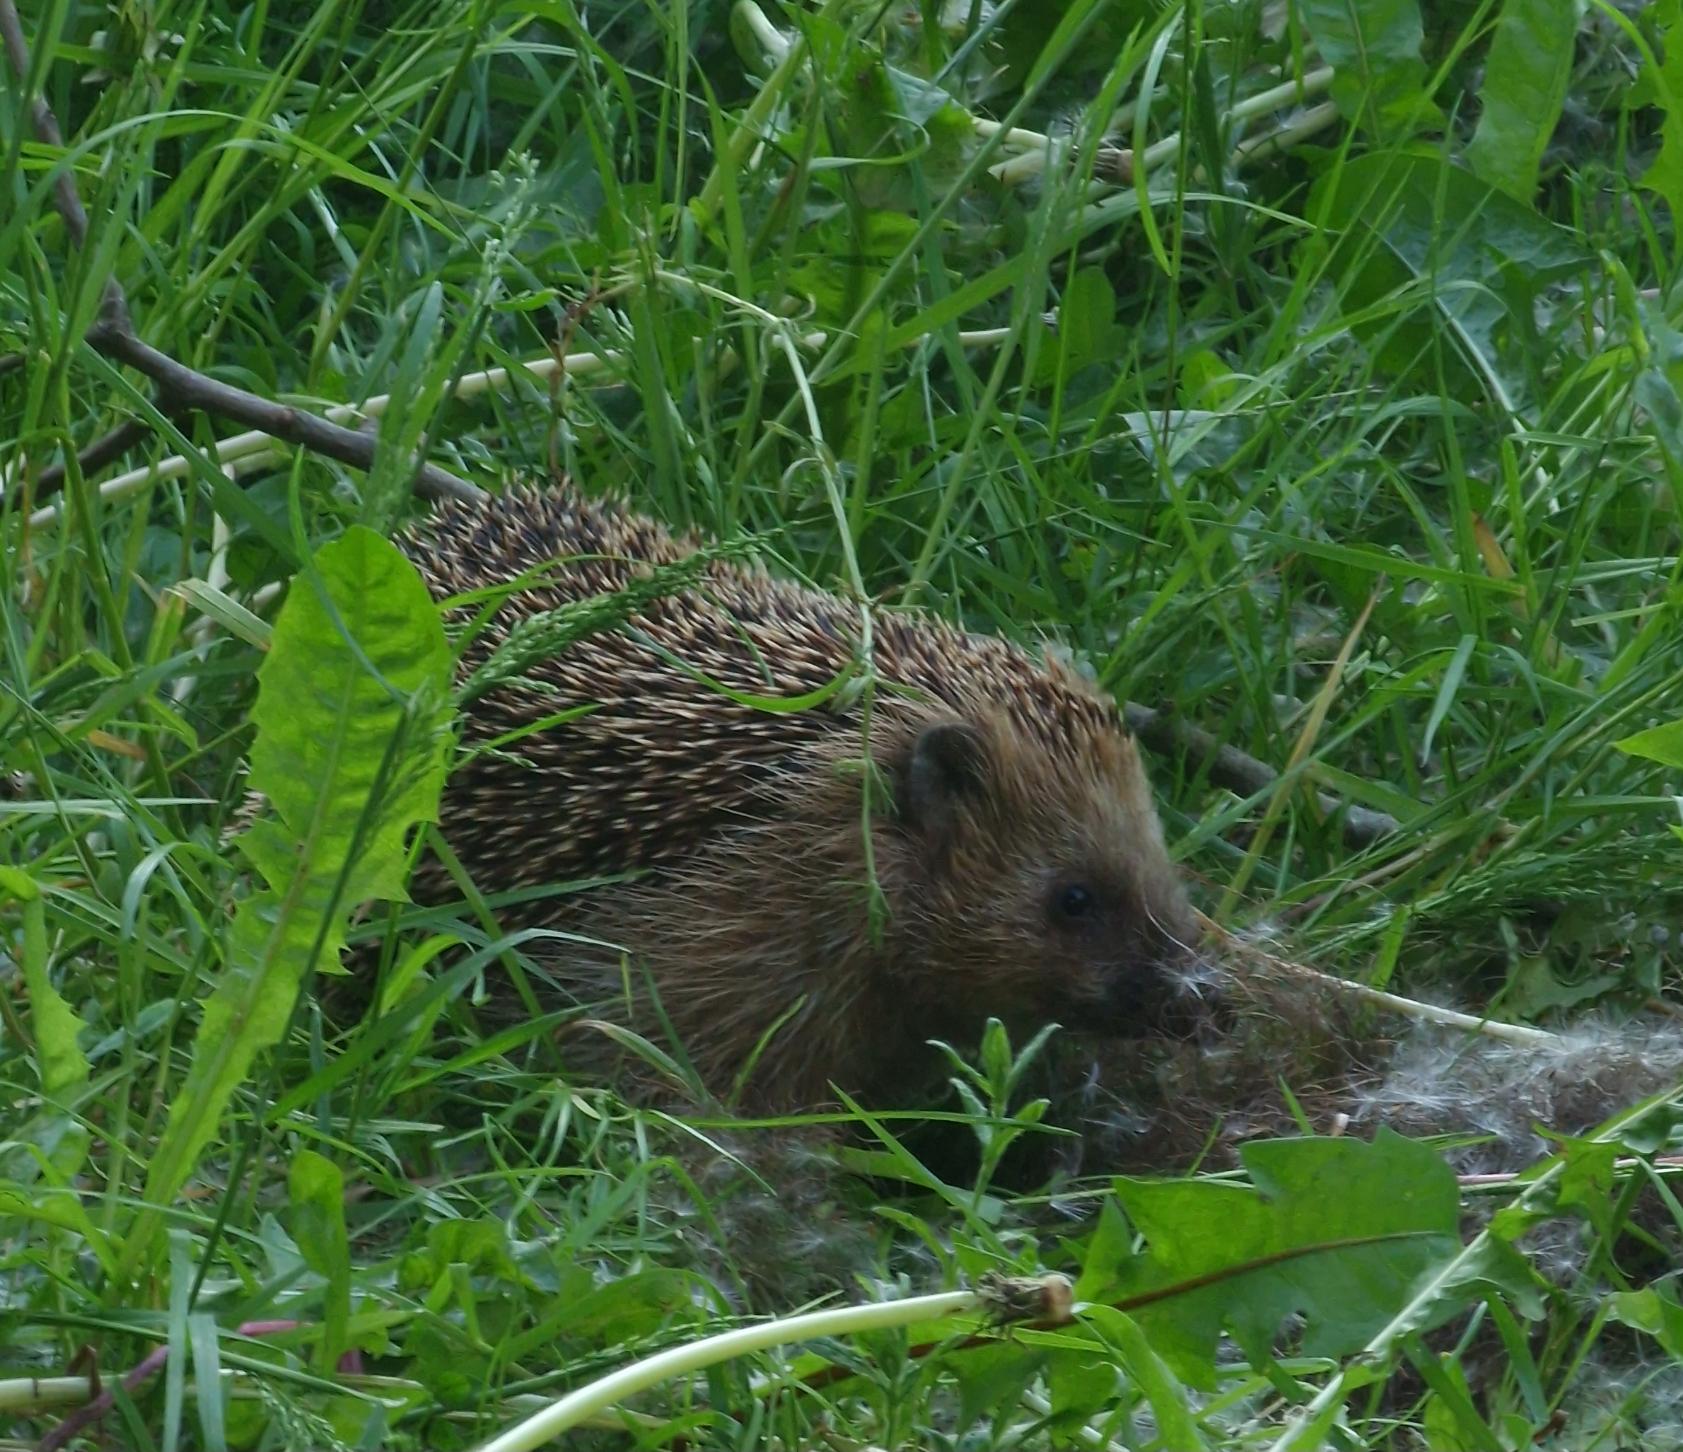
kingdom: Animalia
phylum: Chordata
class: Mammalia
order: Erinaceomorpha
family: Erinaceidae
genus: Erinaceus
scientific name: Erinaceus europaeus
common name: Pindsvin
